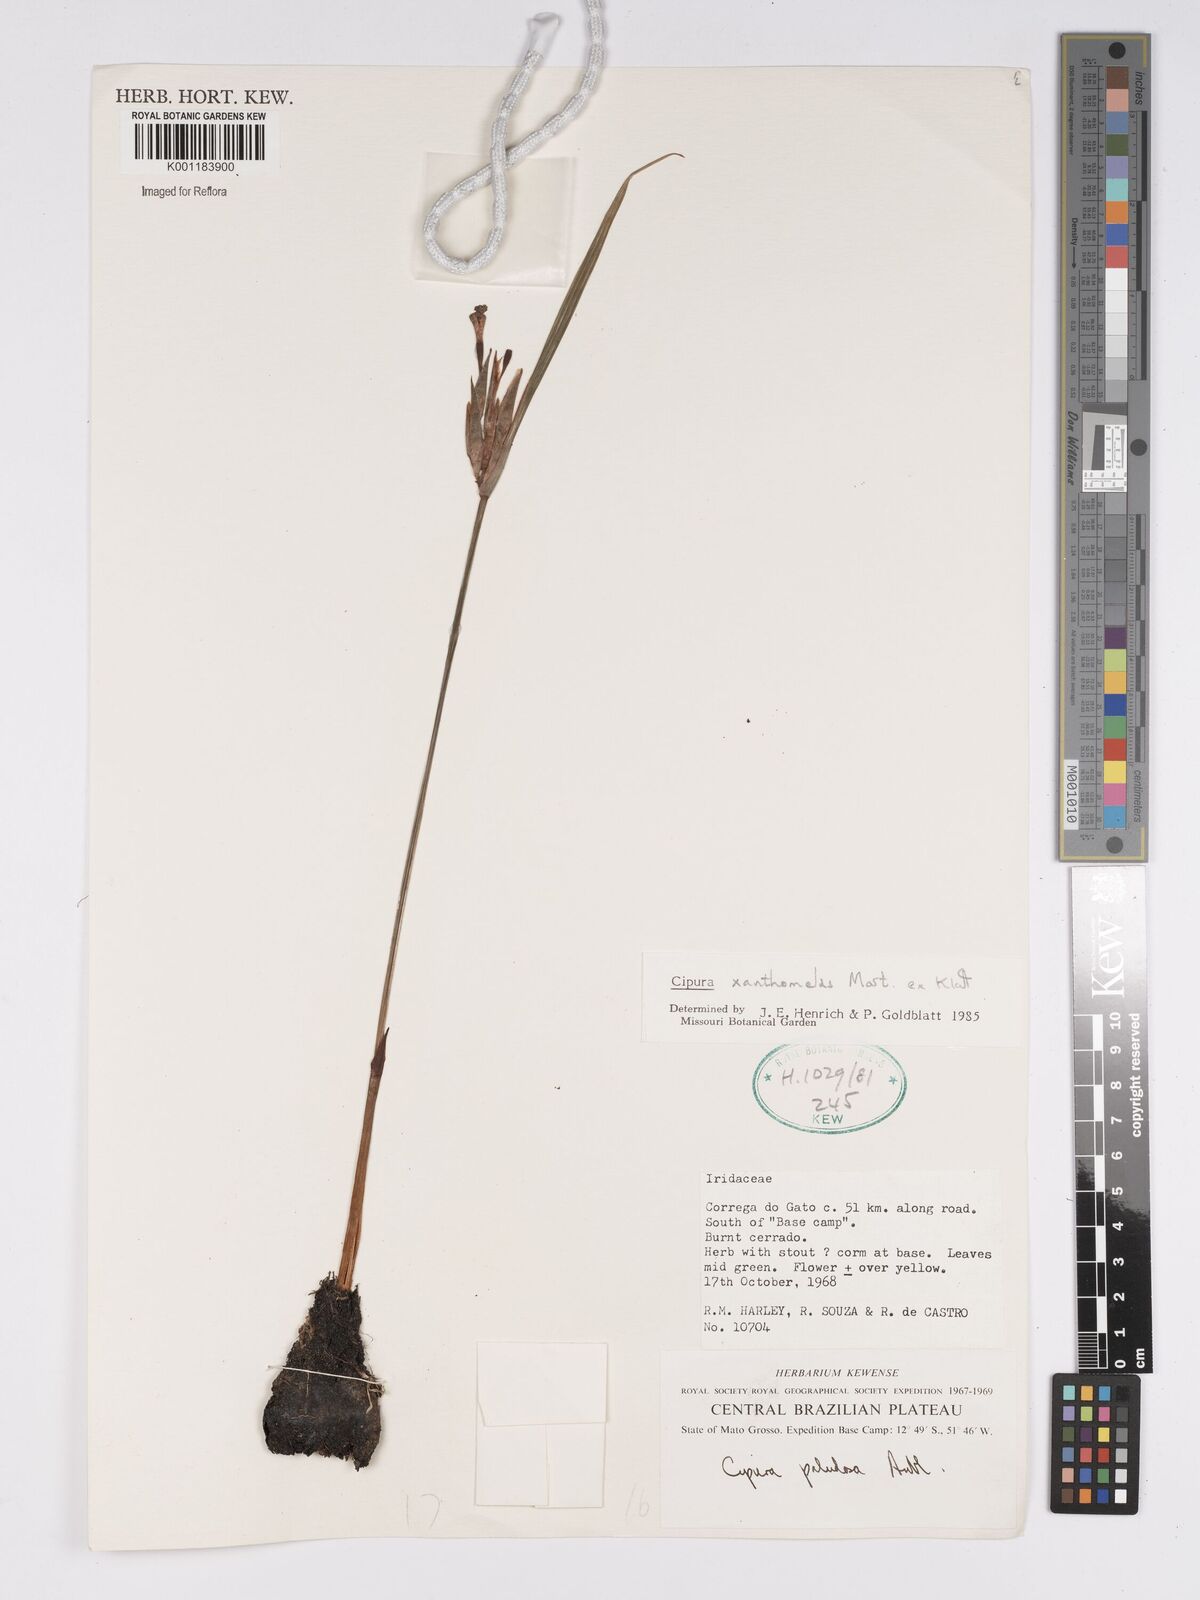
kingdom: Plantae
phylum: Tracheophyta
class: Liliopsida
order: Asparagales
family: Iridaceae
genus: Cipura
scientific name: Cipura xanthomelas
